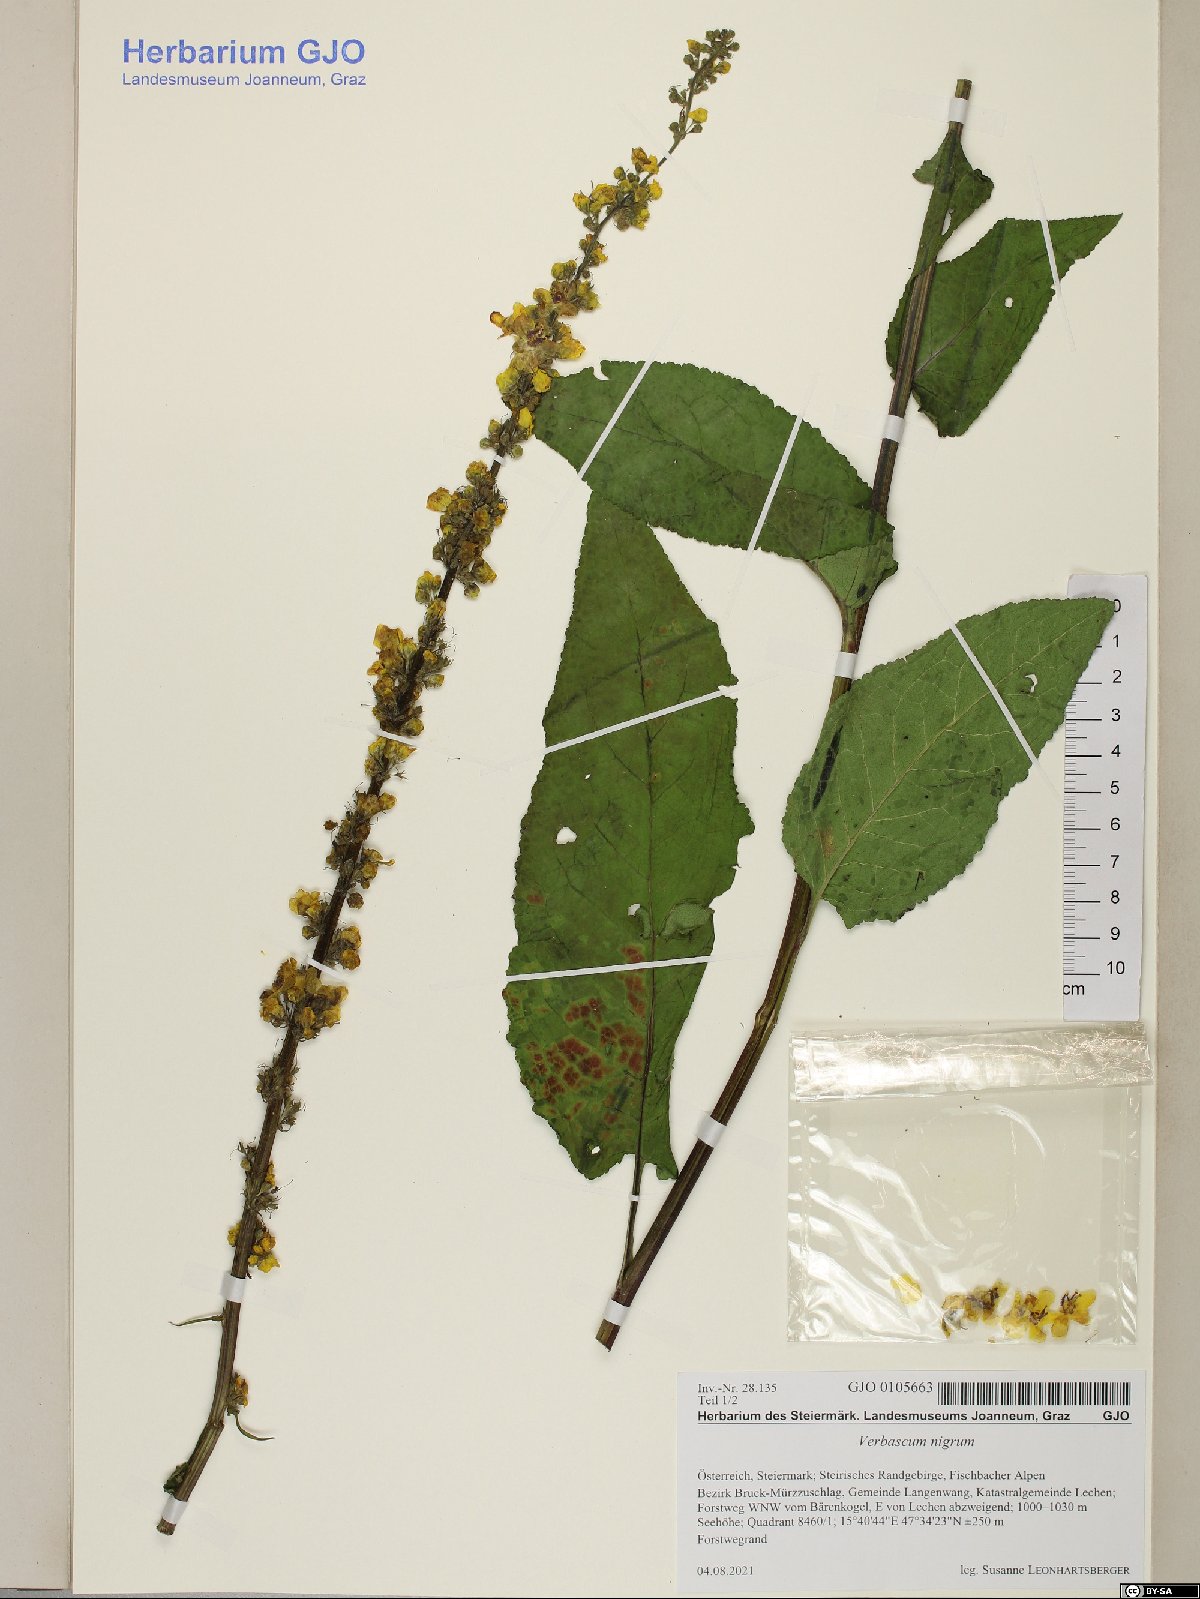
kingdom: Plantae
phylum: Tracheophyta
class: Magnoliopsida
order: Lamiales
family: Scrophulariaceae
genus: Verbascum
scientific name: Verbascum nigrum
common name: Dark mullein
